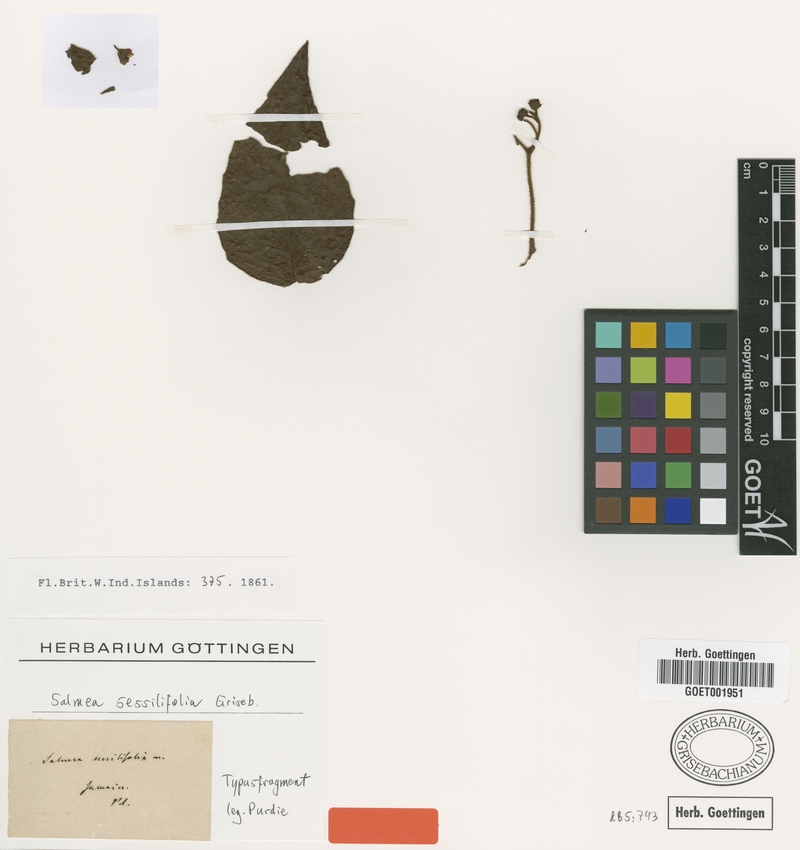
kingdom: Plantae
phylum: Tracheophyta
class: Magnoliopsida
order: Asterales
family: Asteraceae
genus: Salmea
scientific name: Salmea scandens
